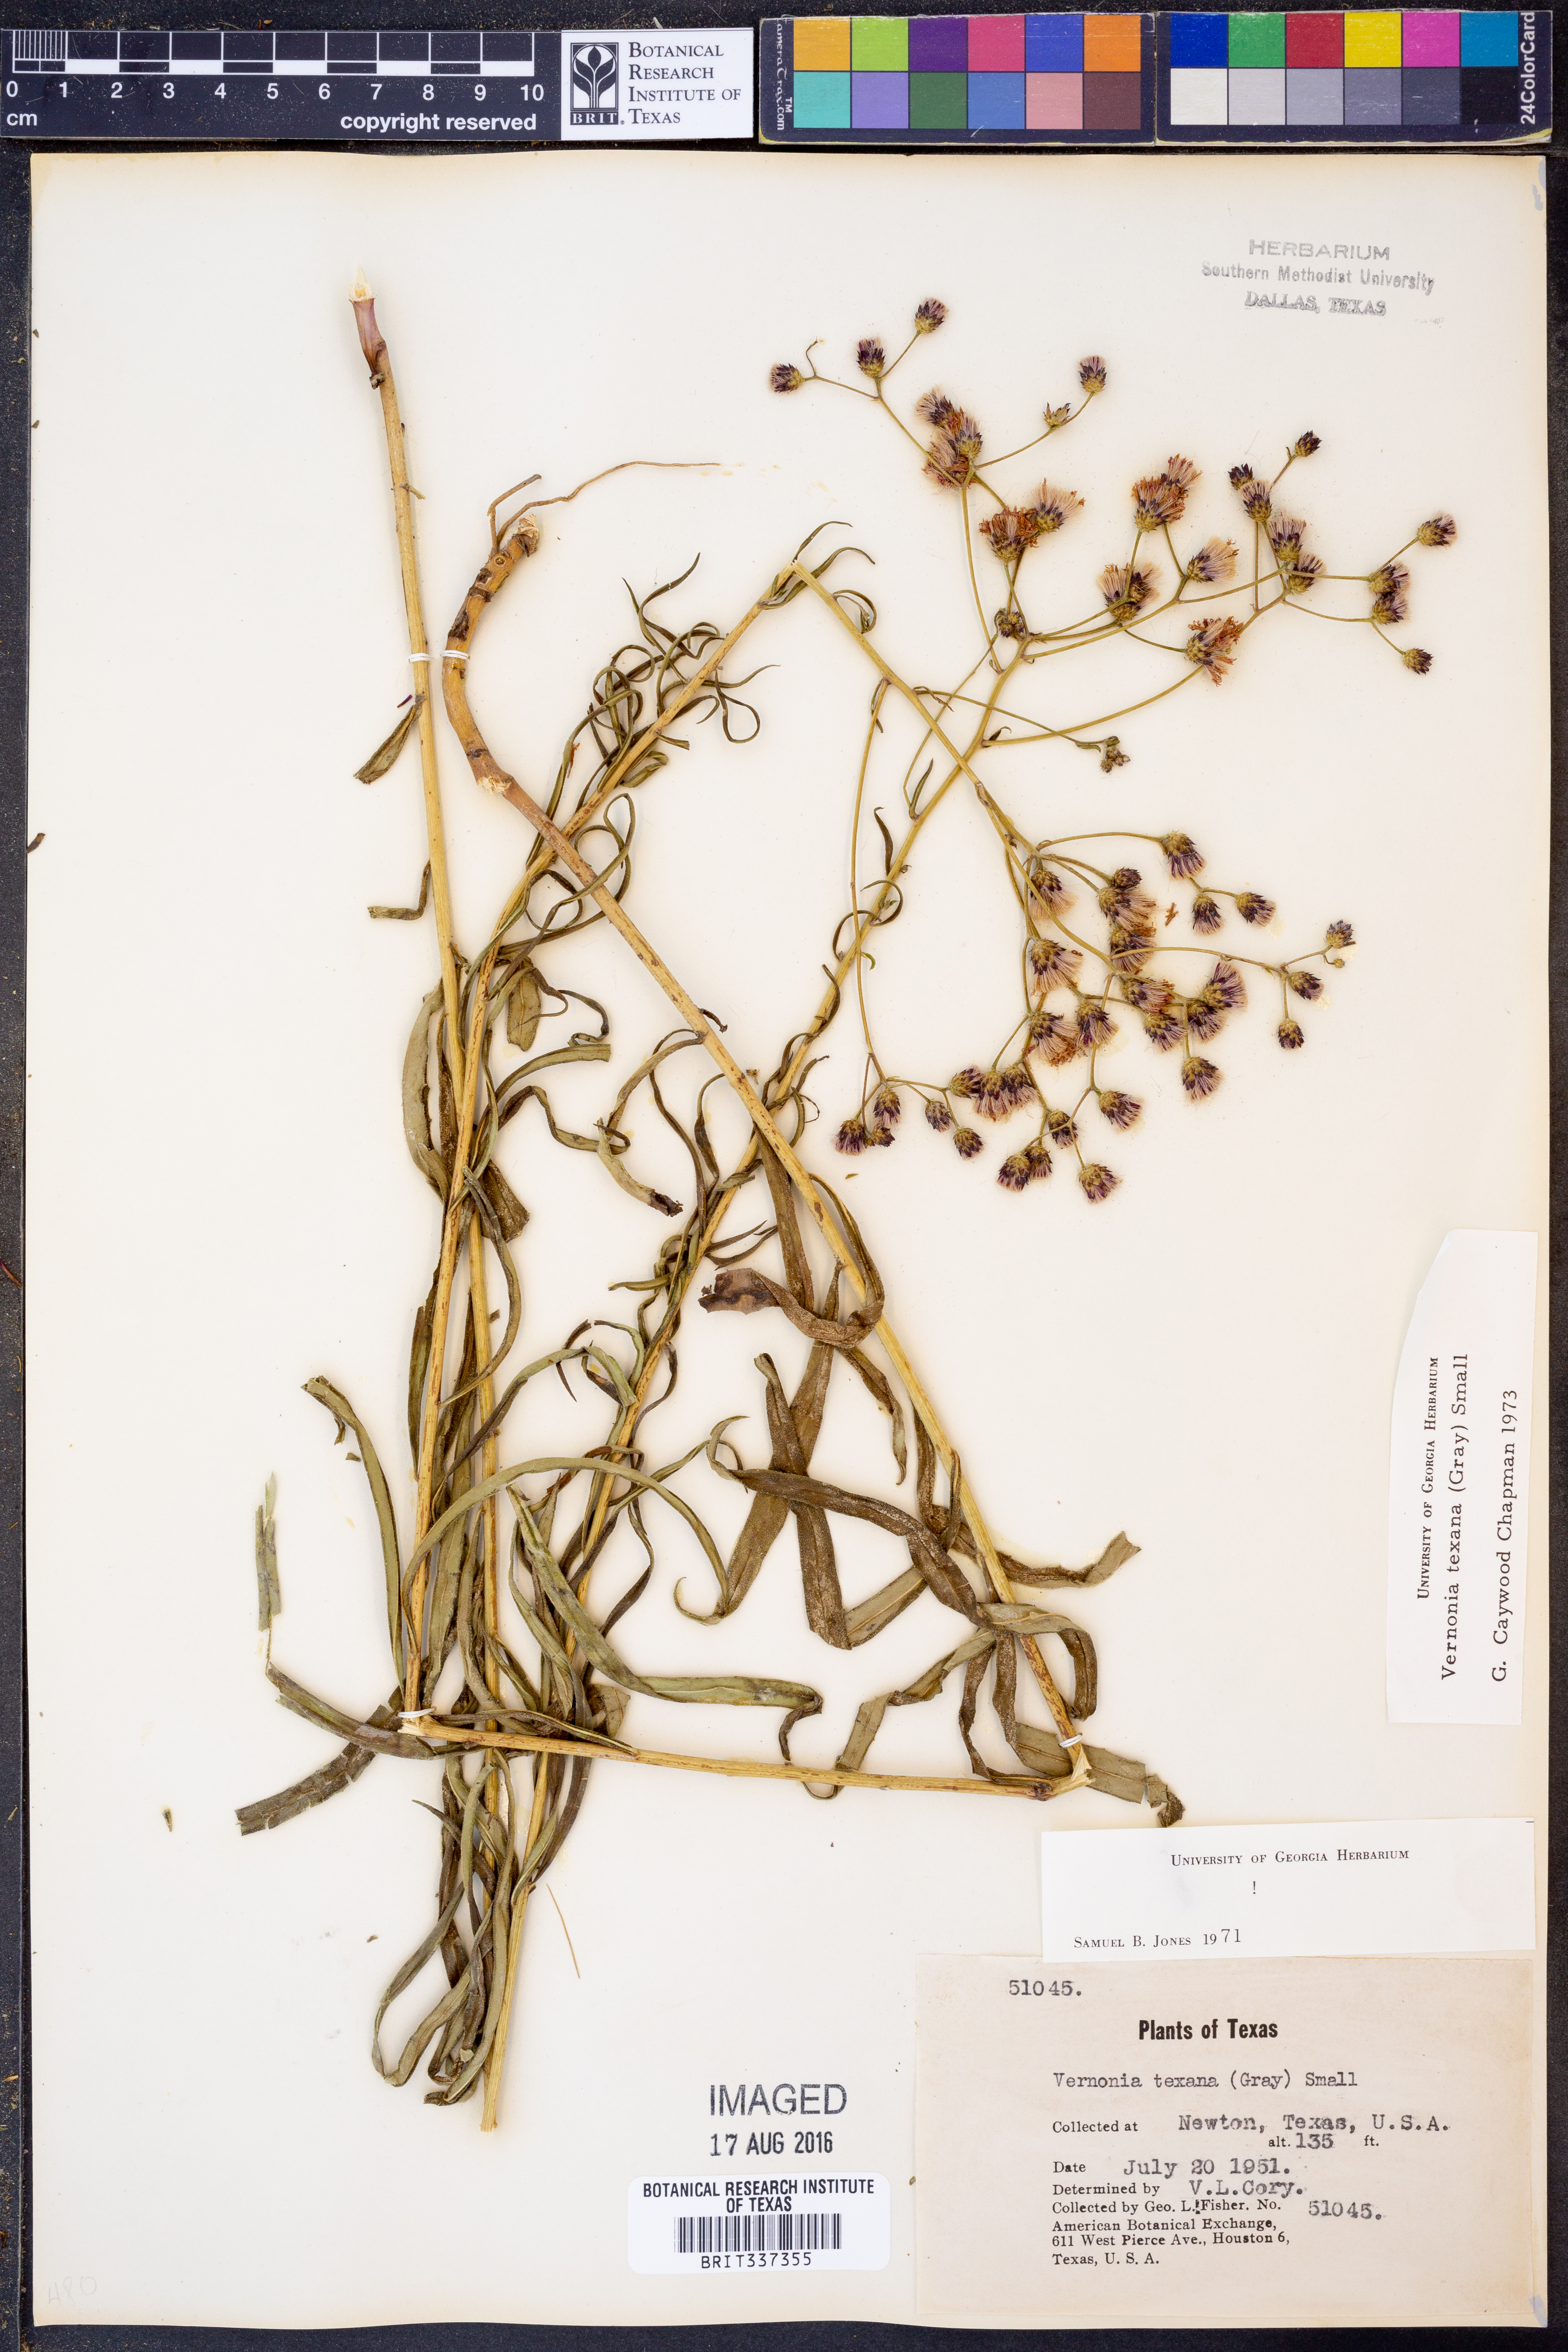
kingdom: Plantae
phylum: Tracheophyta
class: Magnoliopsida
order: Asterales
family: Asteraceae
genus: Vernonia
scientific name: Vernonia texana
